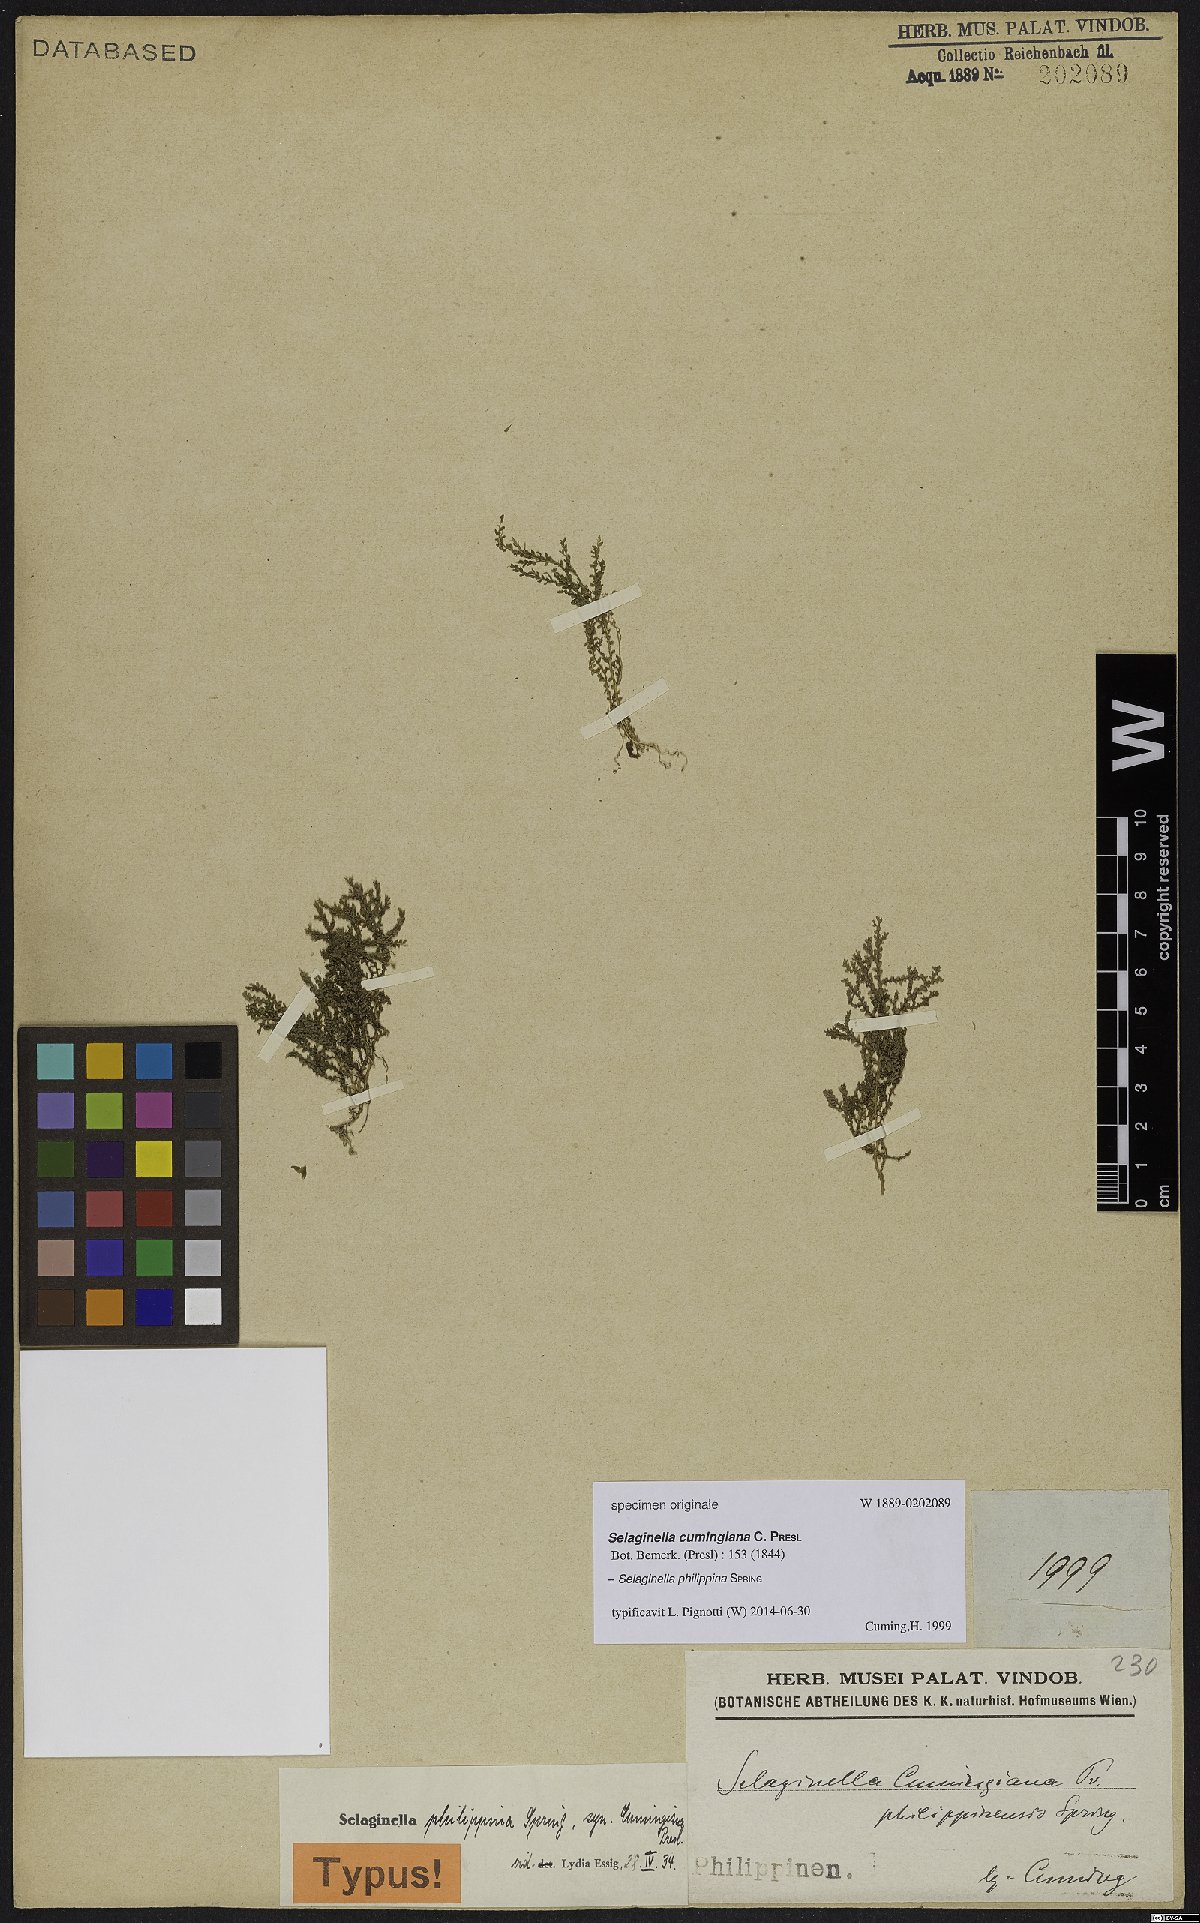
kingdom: Plantae
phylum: Tracheophyta
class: Lycopodiopsida
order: Selaginellales
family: Selaginellaceae
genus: Selaginella
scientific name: Selaginella philippsiana
